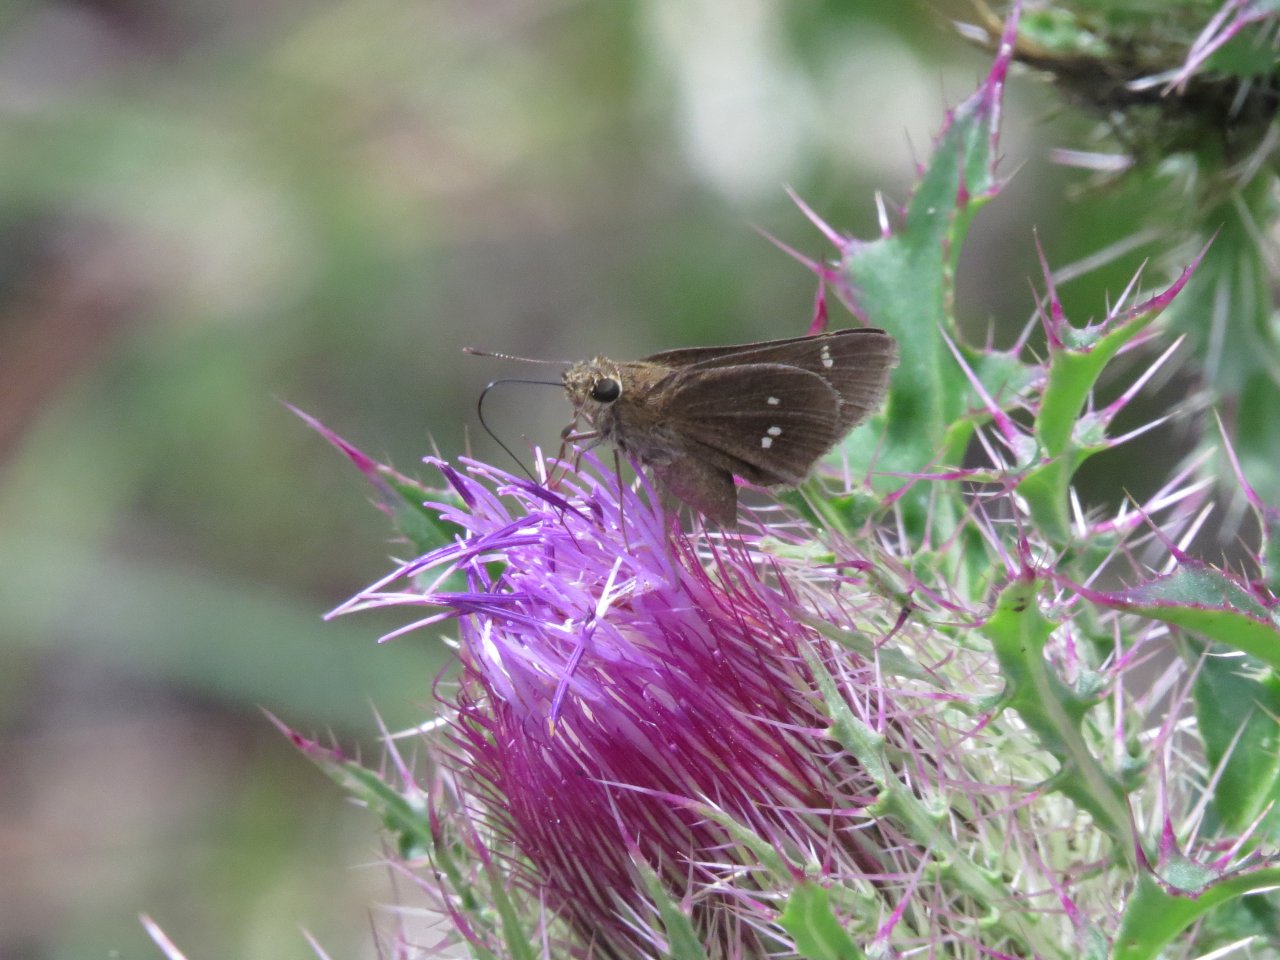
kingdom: Animalia
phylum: Arthropoda
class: Insecta
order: Lepidoptera
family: Hesperiidae
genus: Oligoria
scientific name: Oligoria maculata
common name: Twin-spot Skipper
